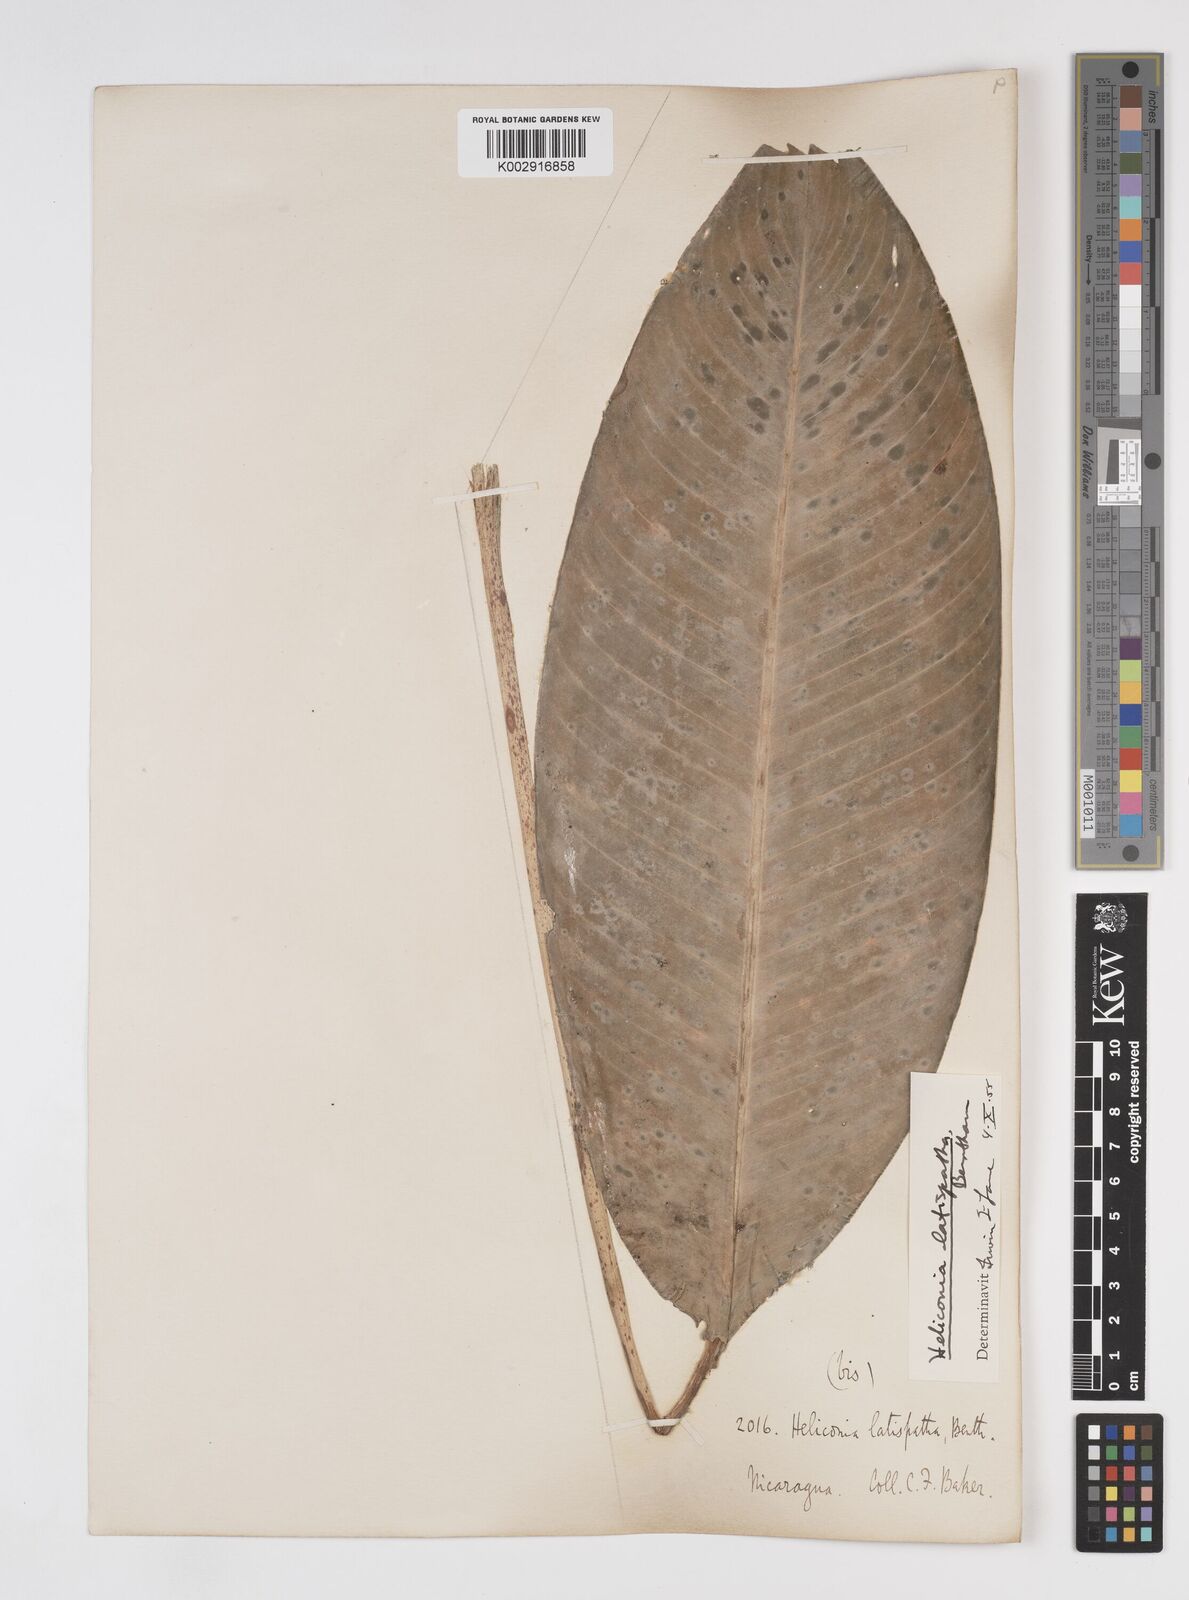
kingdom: Plantae
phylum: Tracheophyta
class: Liliopsida
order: Zingiberales
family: Heliconiaceae
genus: Heliconia
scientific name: Heliconia latispatha
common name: Expanded lobsterclaw
